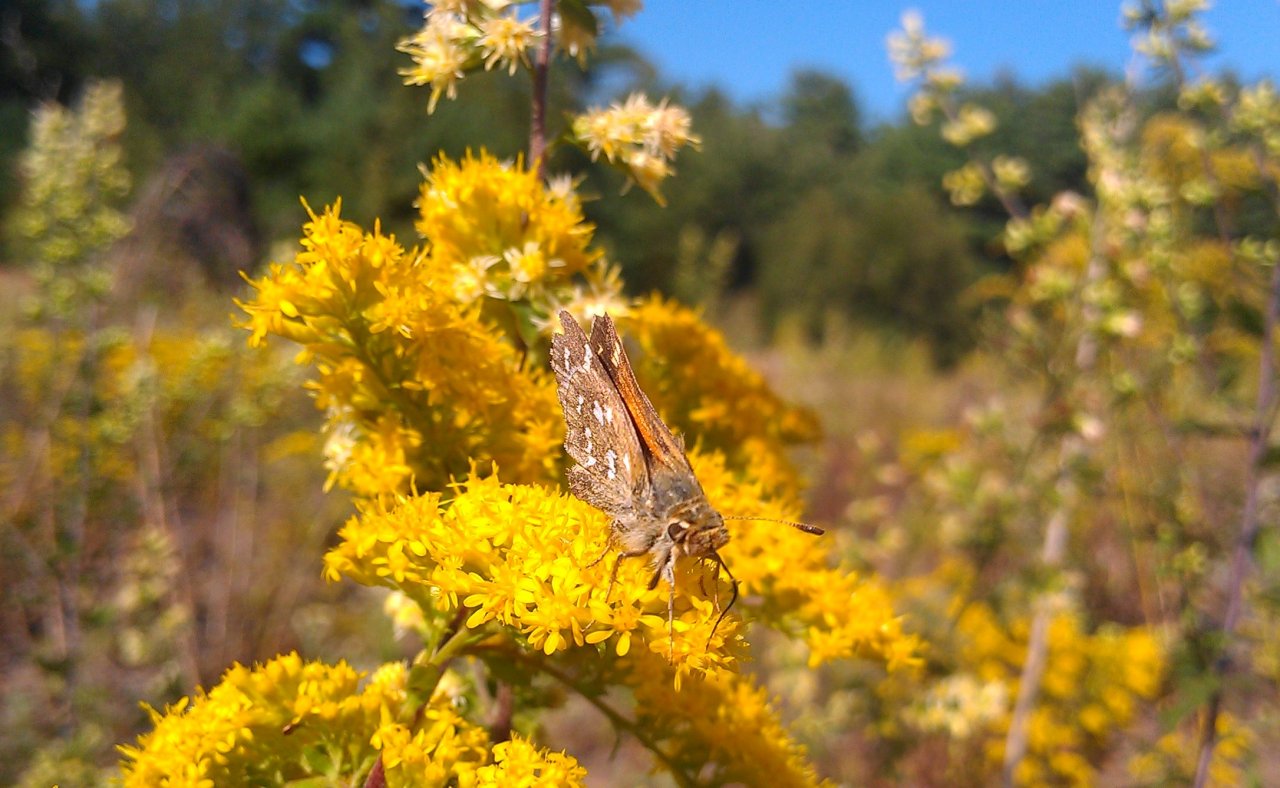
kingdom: Animalia
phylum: Arthropoda
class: Insecta
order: Lepidoptera
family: Hesperiidae
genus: Hesperia
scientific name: Hesperia comma
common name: Common Branded Skipper
